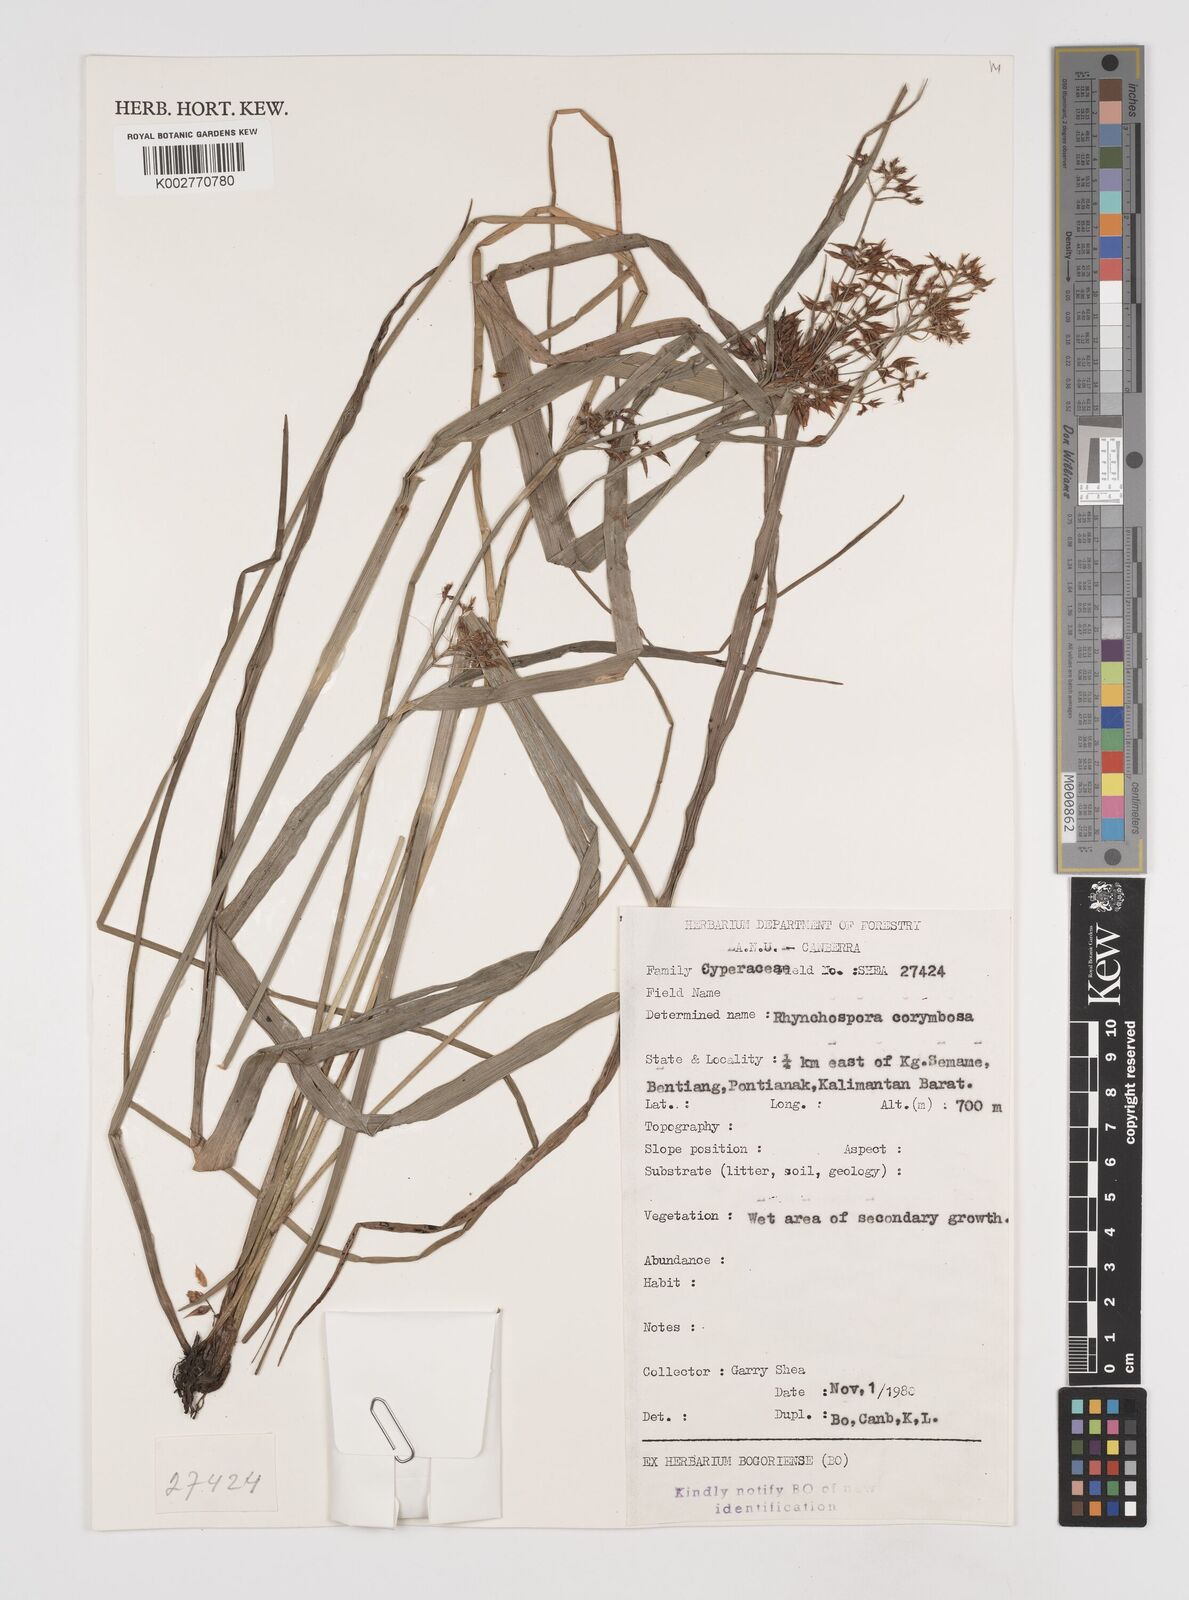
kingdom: Plantae
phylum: Tracheophyta
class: Liliopsida
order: Poales
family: Cyperaceae
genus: Rhynchospora
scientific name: Rhynchospora corymbosa
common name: Golden beak sedge
